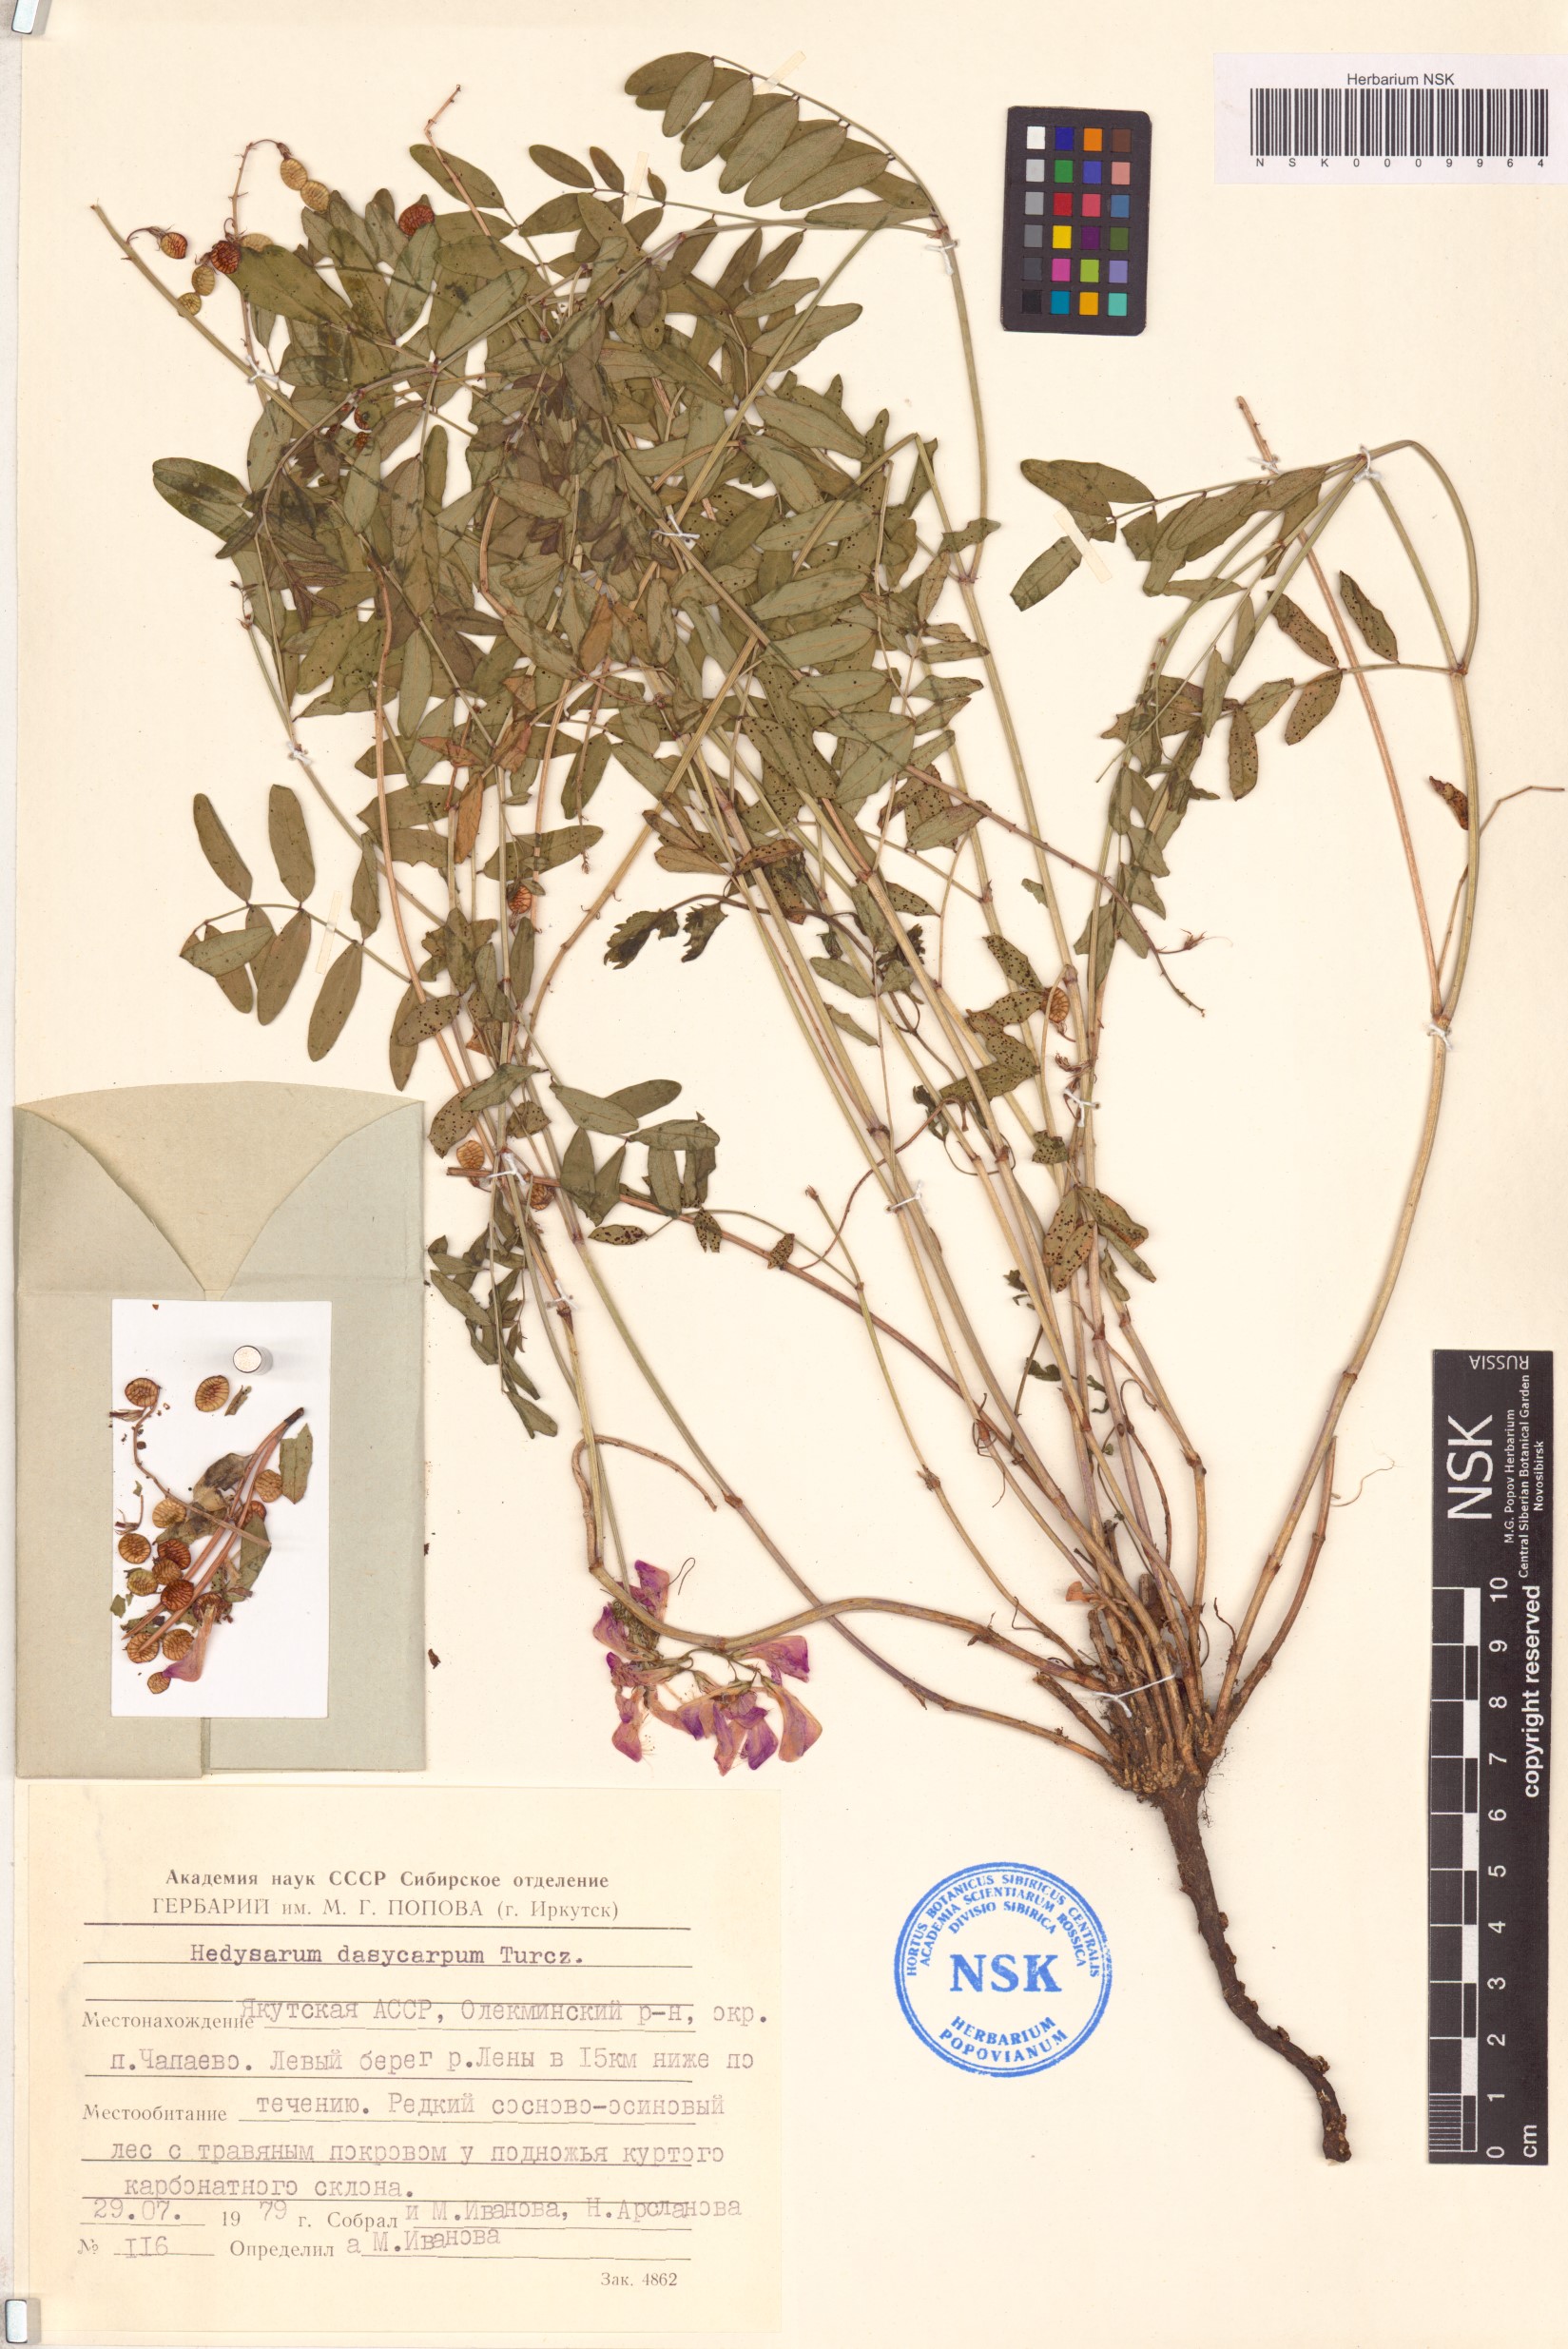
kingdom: Plantae
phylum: Tracheophyta
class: Magnoliopsida
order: Fabales
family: Fabaceae
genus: Hedysarum
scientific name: Hedysarum dasycarpum
